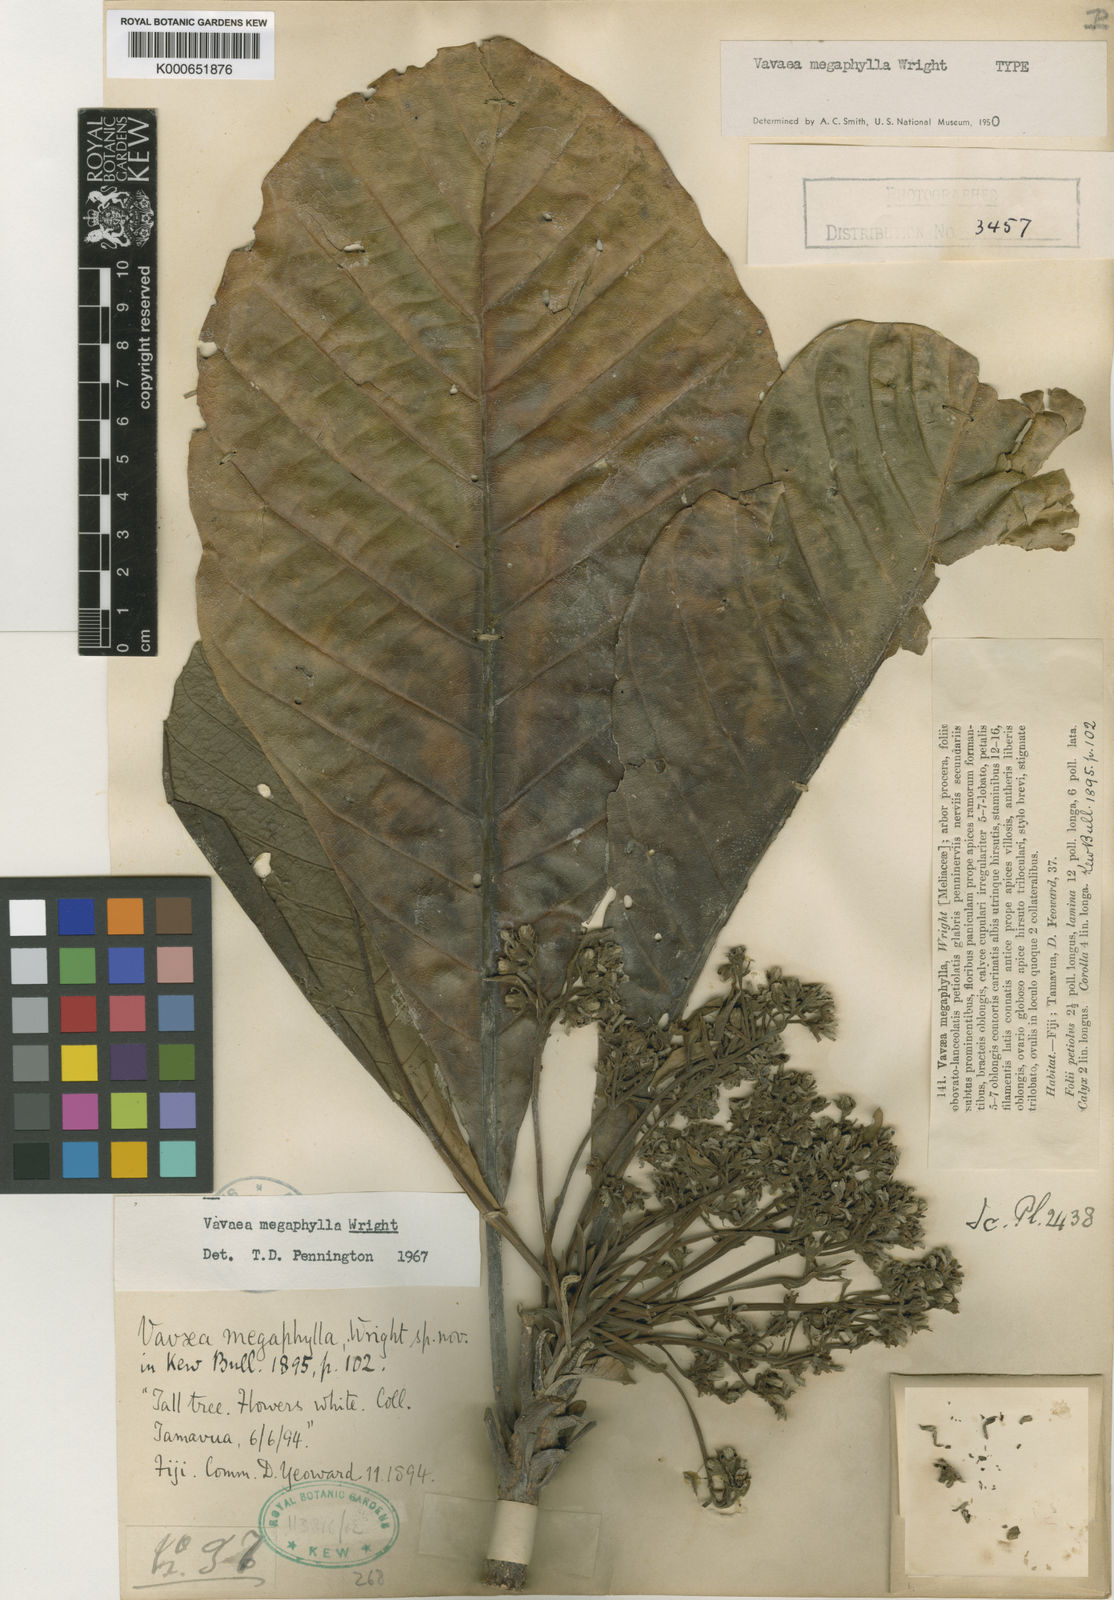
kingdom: Plantae
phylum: Tracheophyta
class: Magnoliopsida
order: Sapindales
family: Meliaceae
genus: Vavaea
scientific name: Vavaea megaphylla
